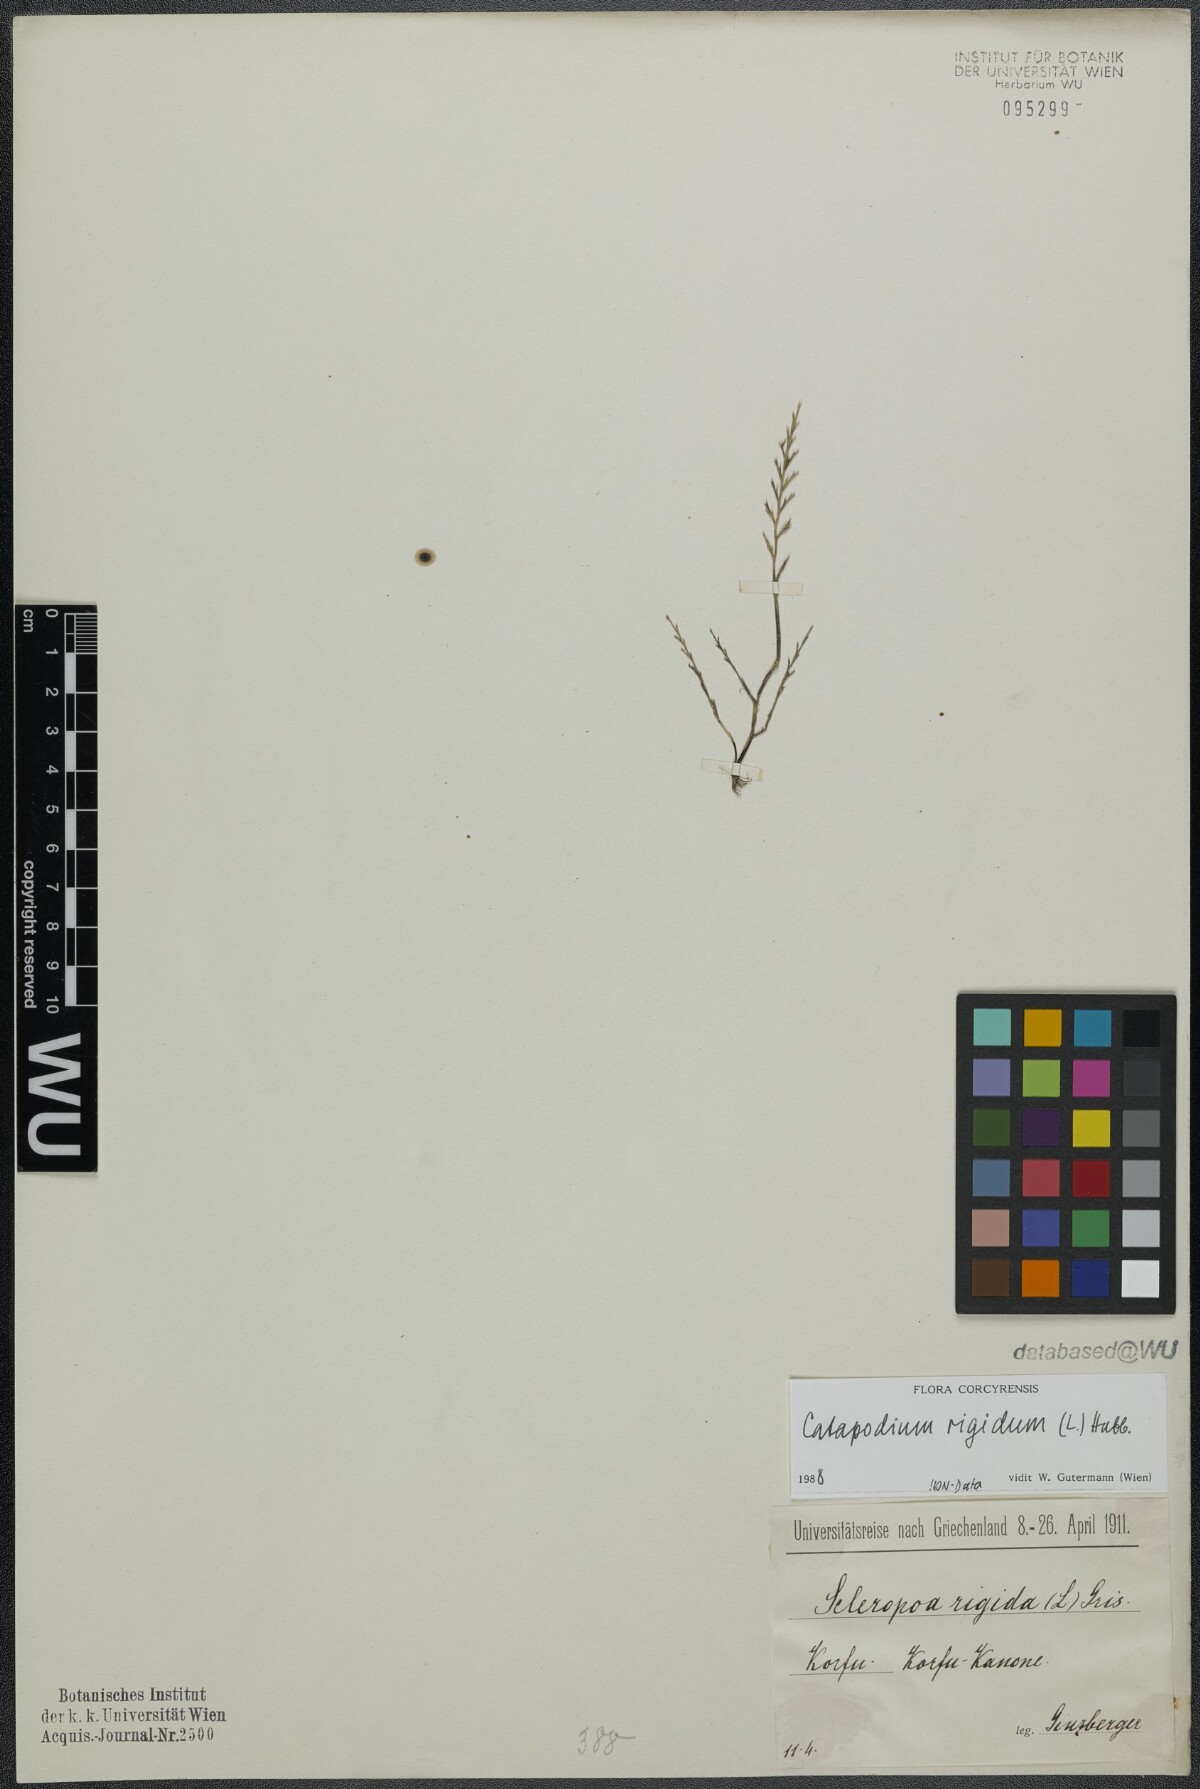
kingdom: Plantae
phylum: Tracheophyta
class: Liliopsida
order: Poales
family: Poaceae
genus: Catapodium
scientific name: Catapodium rigidum
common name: Fern-grass
